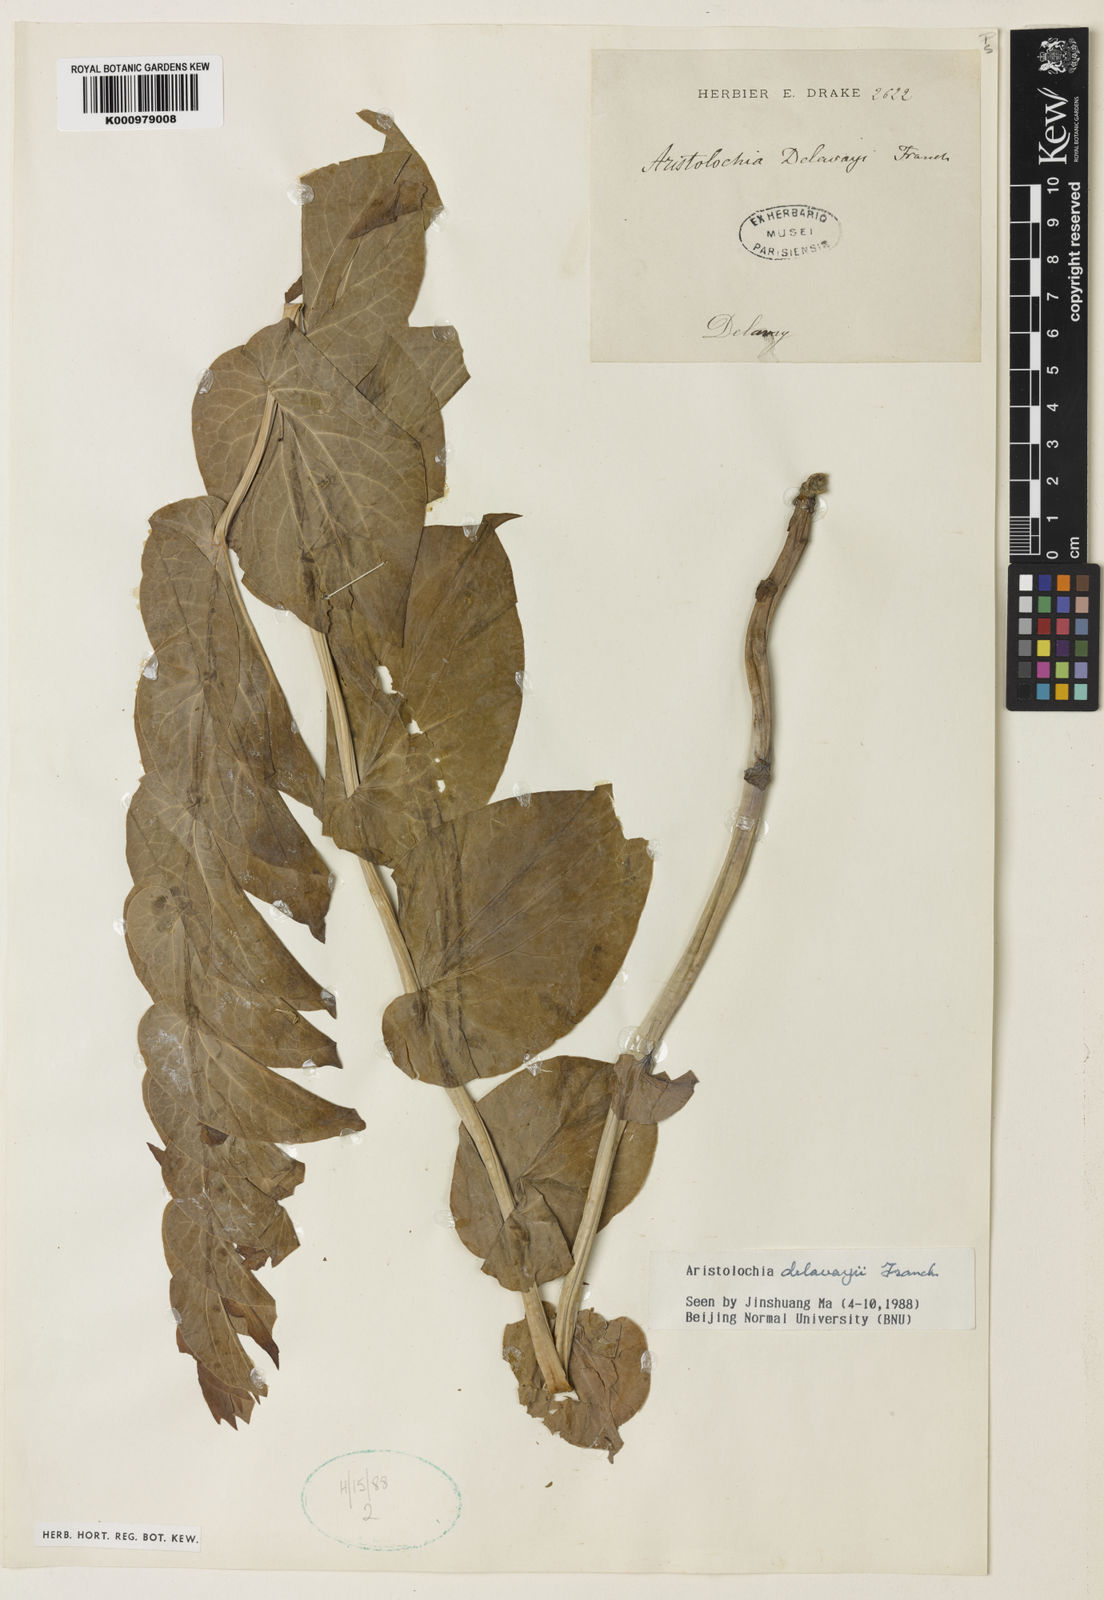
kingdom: Plantae
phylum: Tracheophyta
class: Magnoliopsida
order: Piperales
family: Aristolochiaceae
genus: Aristolochia
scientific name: Aristolochia delavayi
